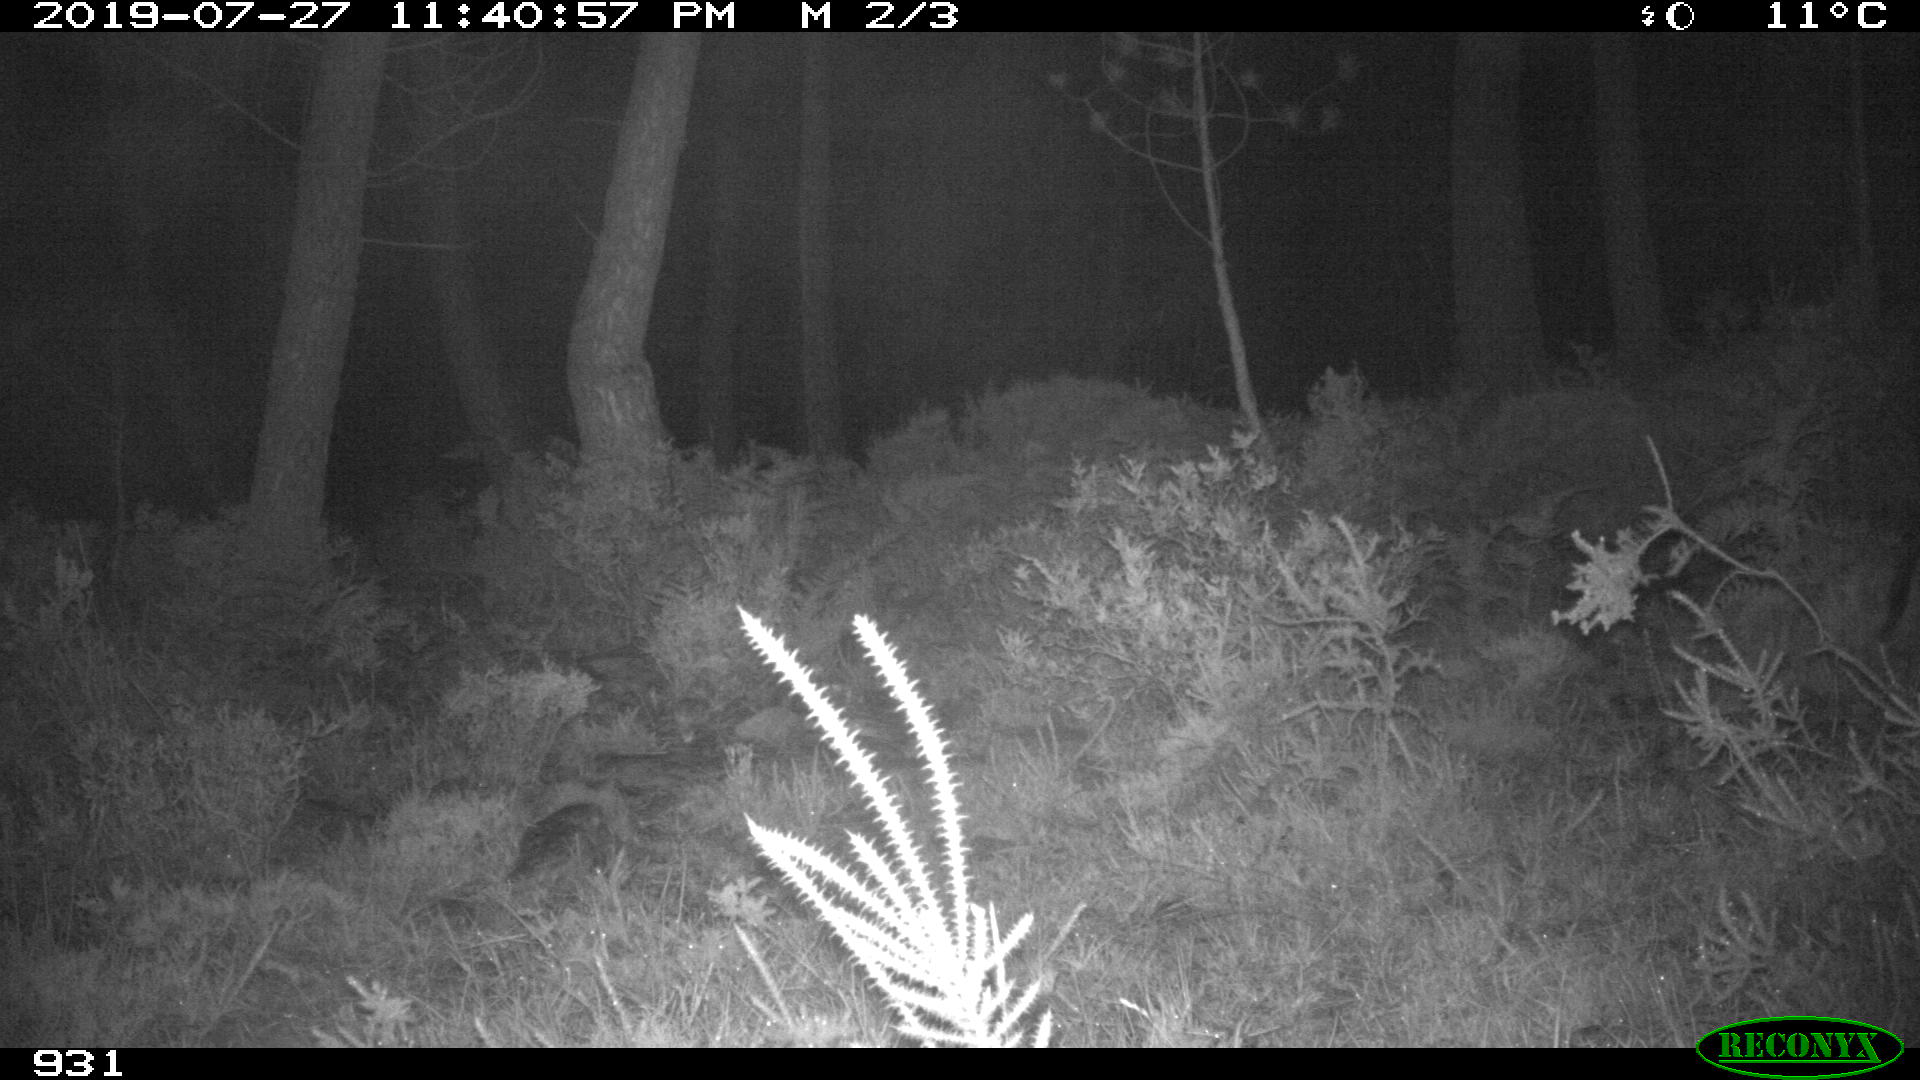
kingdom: Animalia
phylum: Chordata
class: Mammalia
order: Artiodactyla
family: Suidae
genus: Sus
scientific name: Sus scrofa
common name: Wild boar
